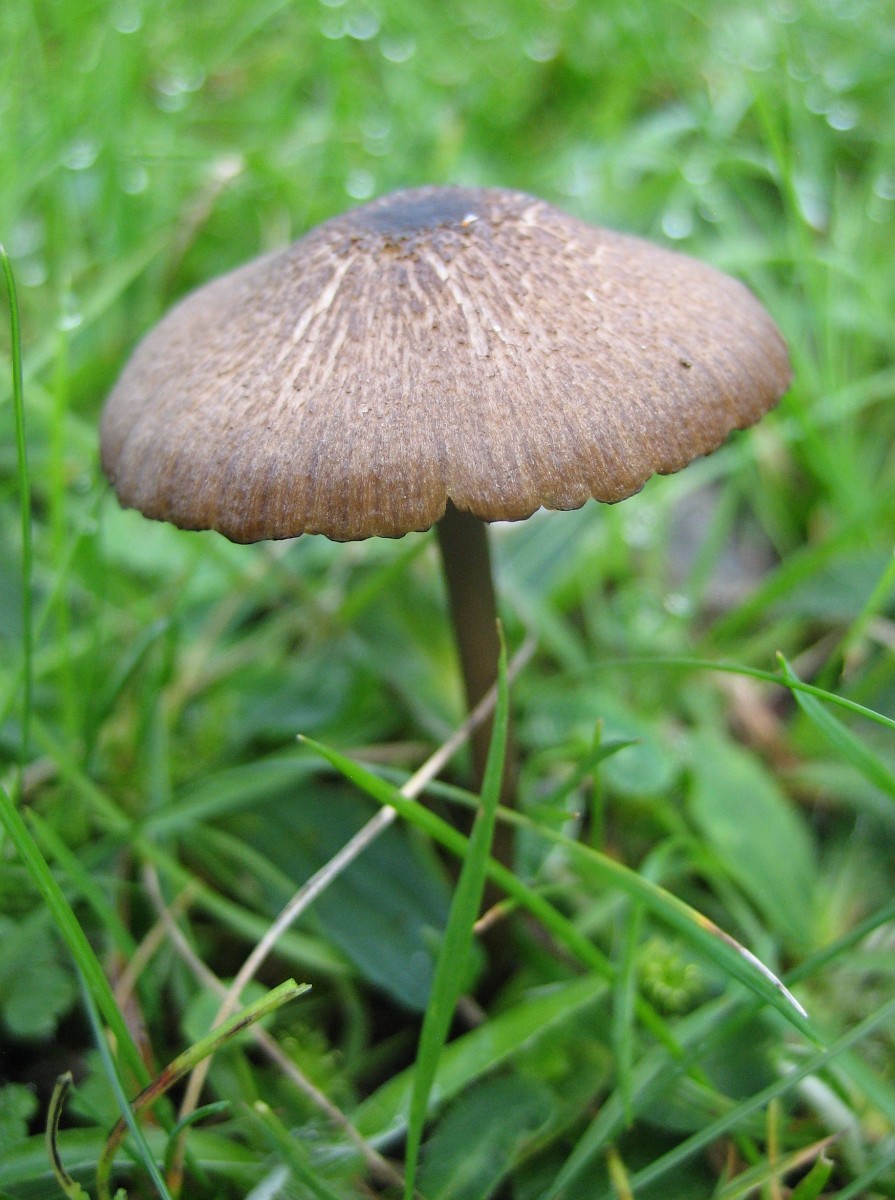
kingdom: Fungi
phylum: Basidiomycota
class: Agaricomycetes
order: Agaricales
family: Entolomataceae
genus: Entoloma
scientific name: Entoloma
